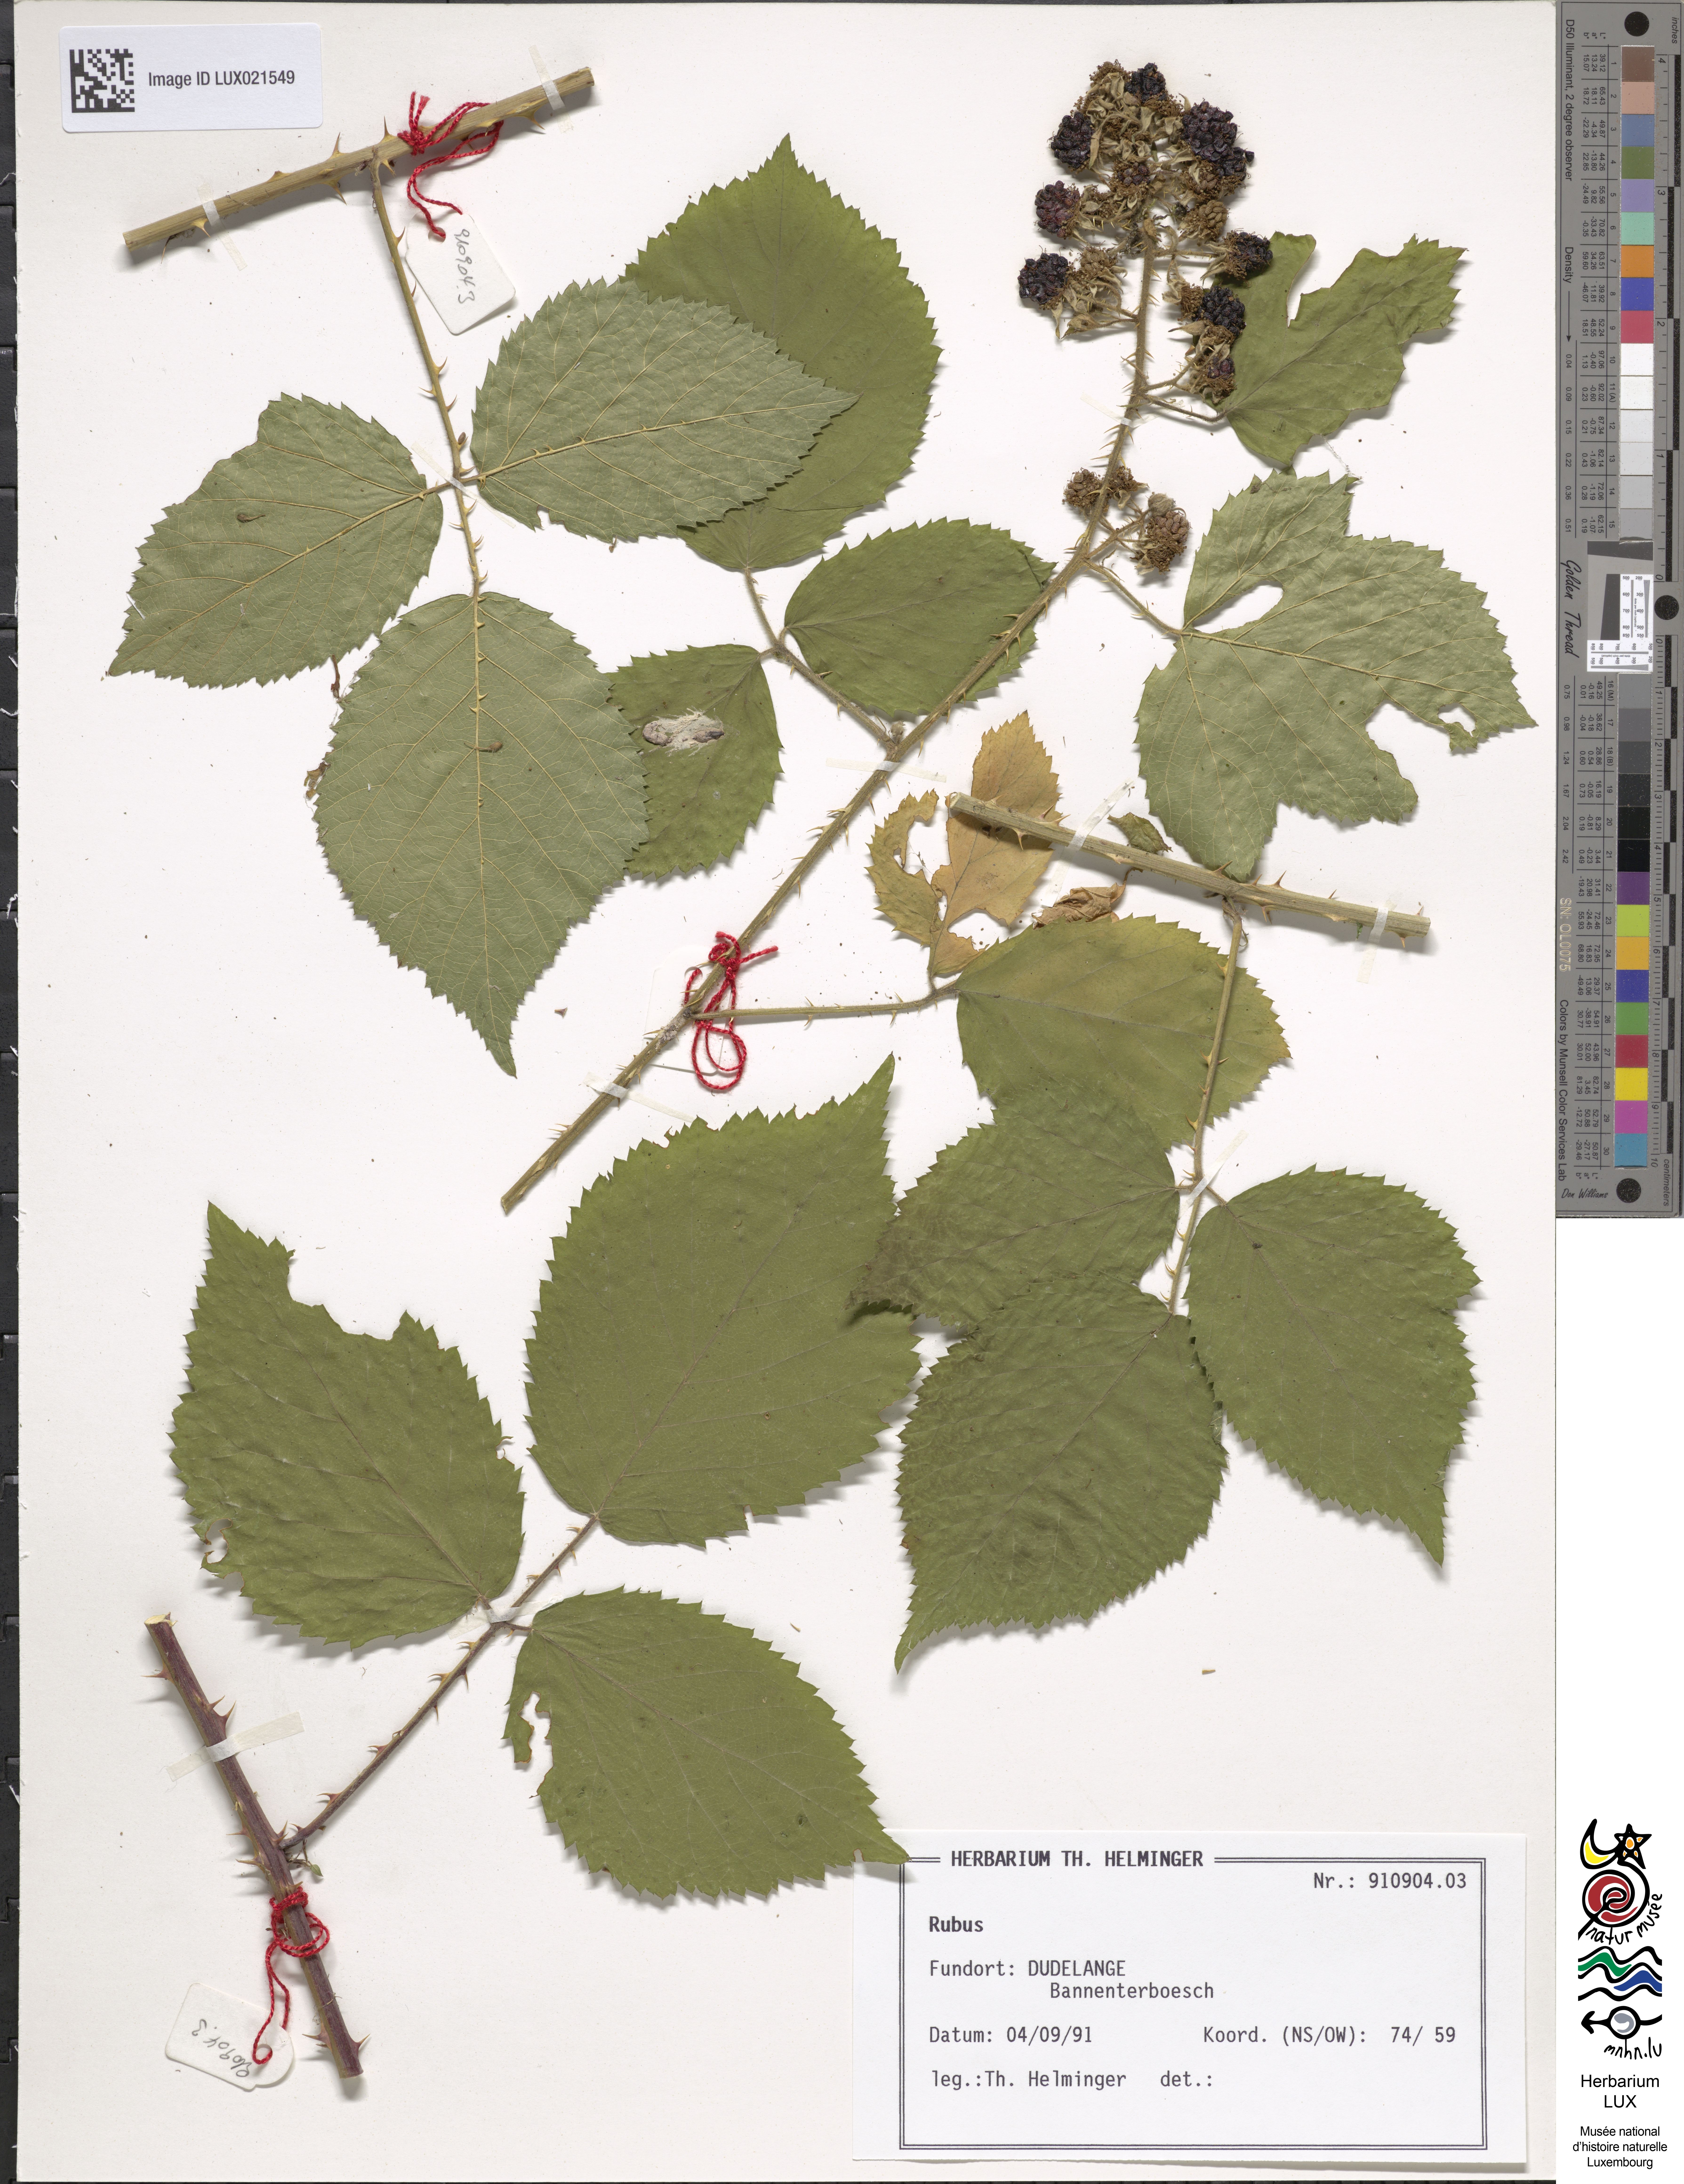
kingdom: Plantae
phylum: Tracheophyta
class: Magnoliopsida
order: Rosales
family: Rosaceae
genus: Rubus
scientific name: Rubus
